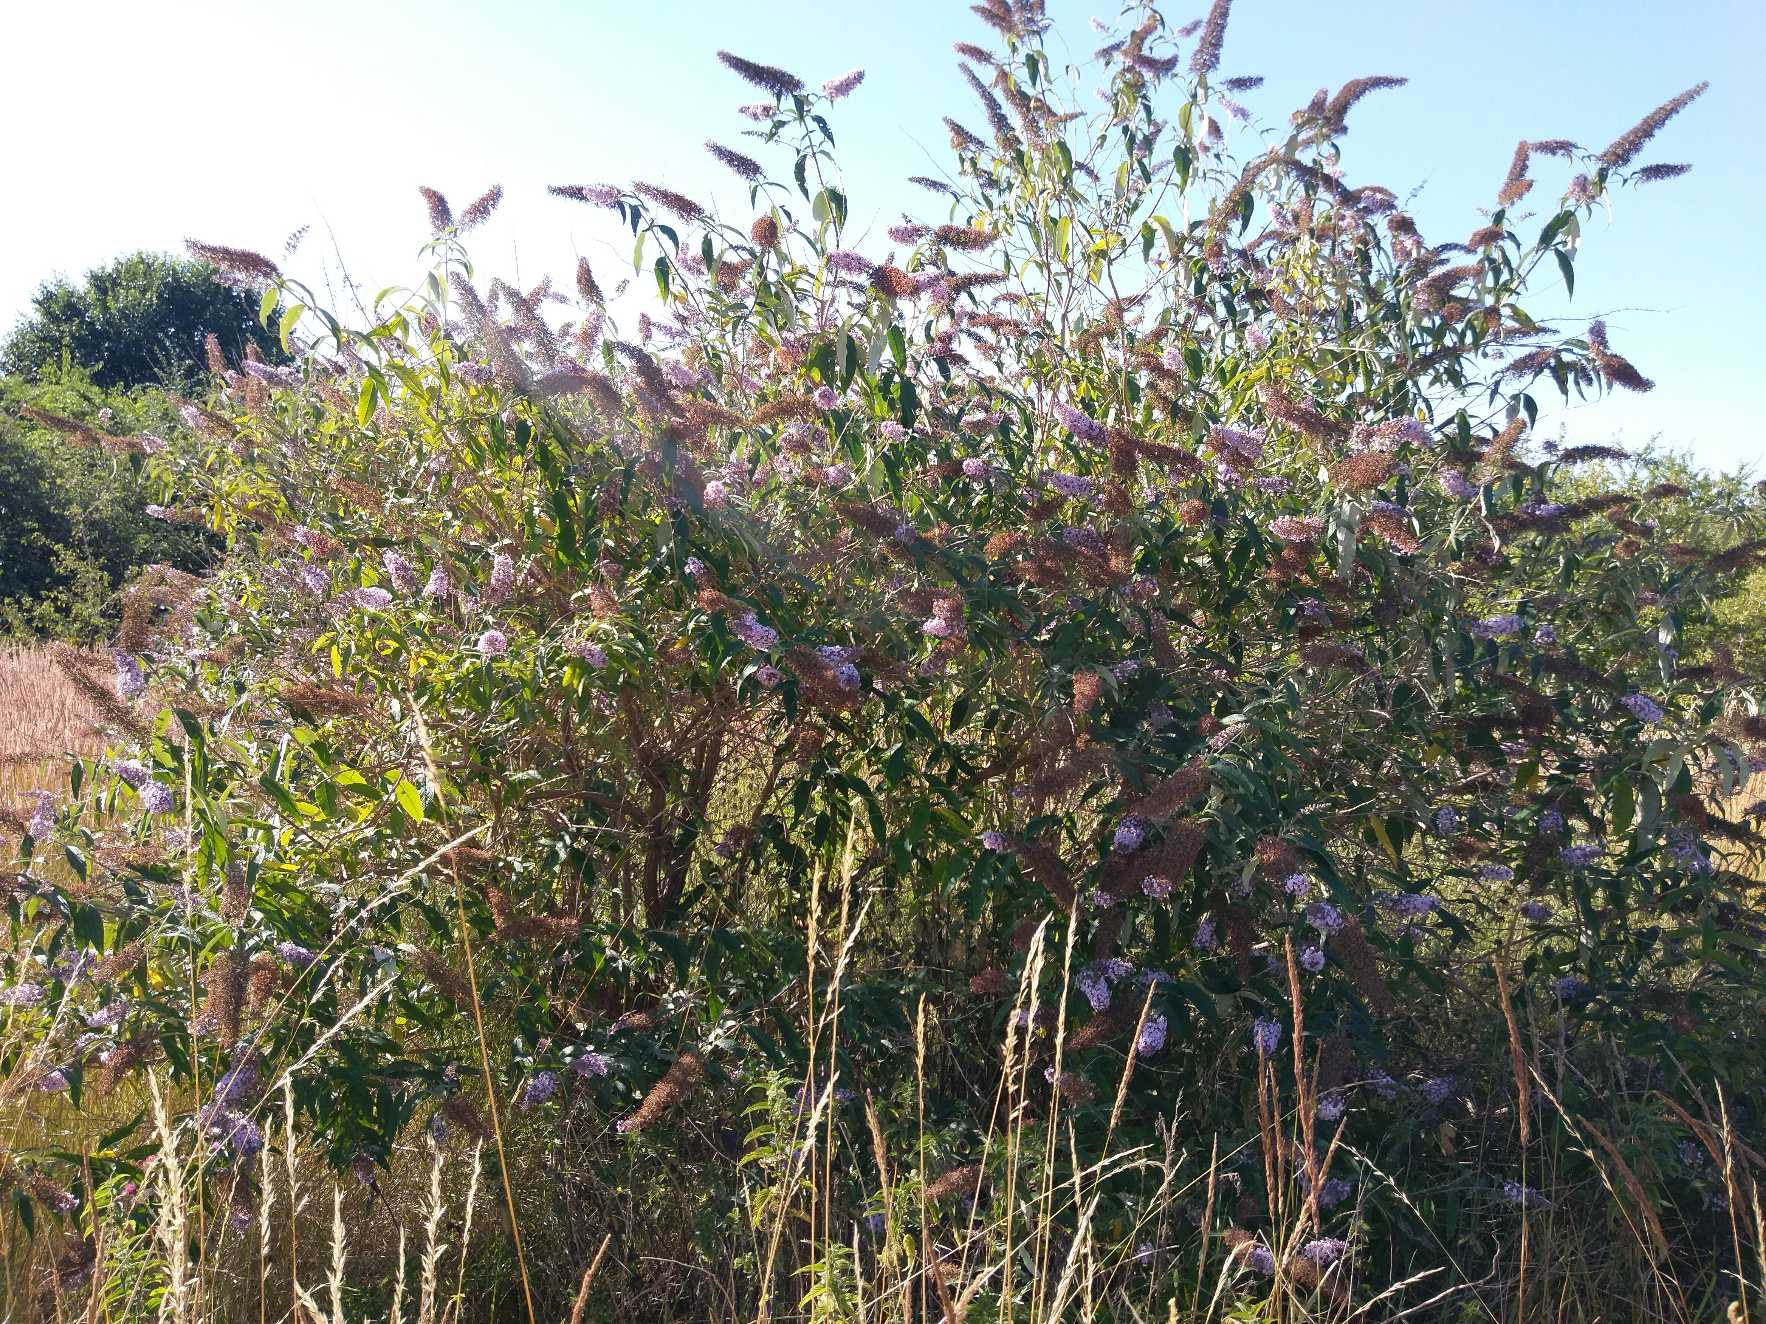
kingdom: Plantae
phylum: Tracheophyta
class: Magnoliopsida
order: Lamiales
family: Scrophulariaceae
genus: Buddleja
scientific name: Buddleja davidii
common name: Sommerfuglebusk
